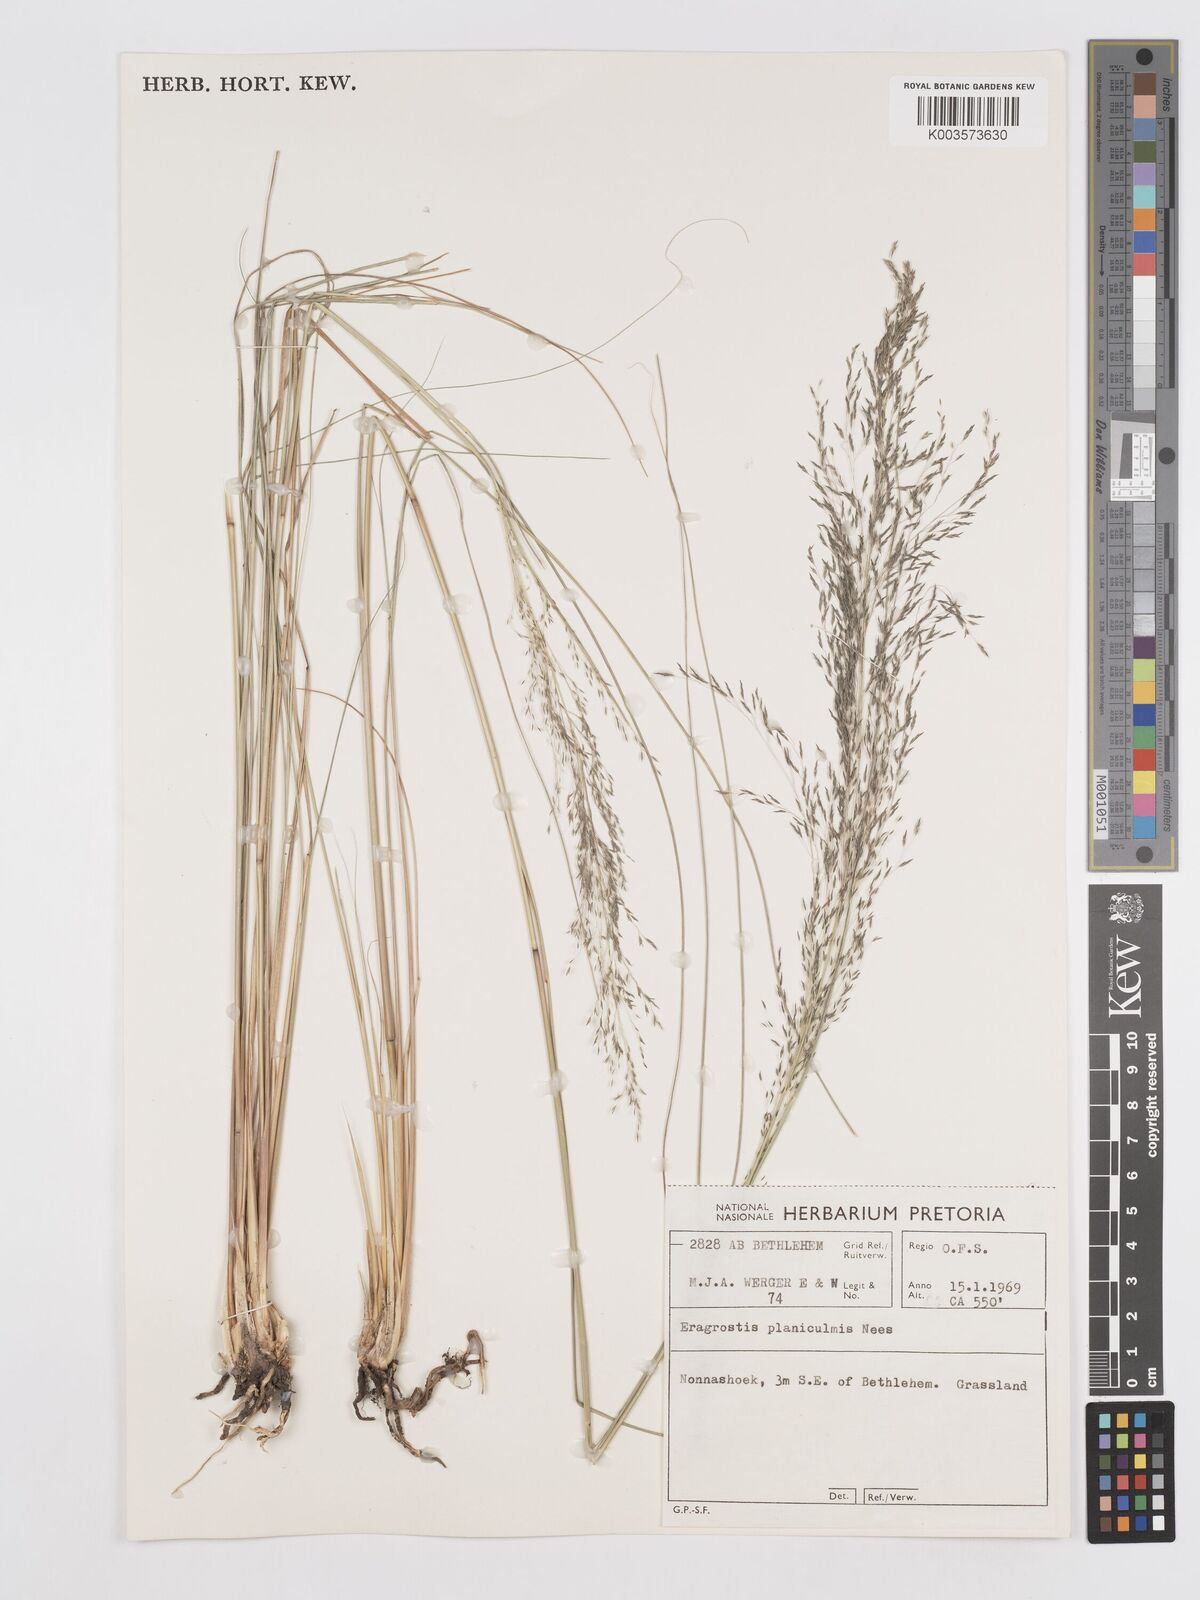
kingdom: Plantae
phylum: Tracheophyta
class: Liliopsida
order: Poales
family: Poaceae
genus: Eragrostis
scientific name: Eragrostis planiculmis
